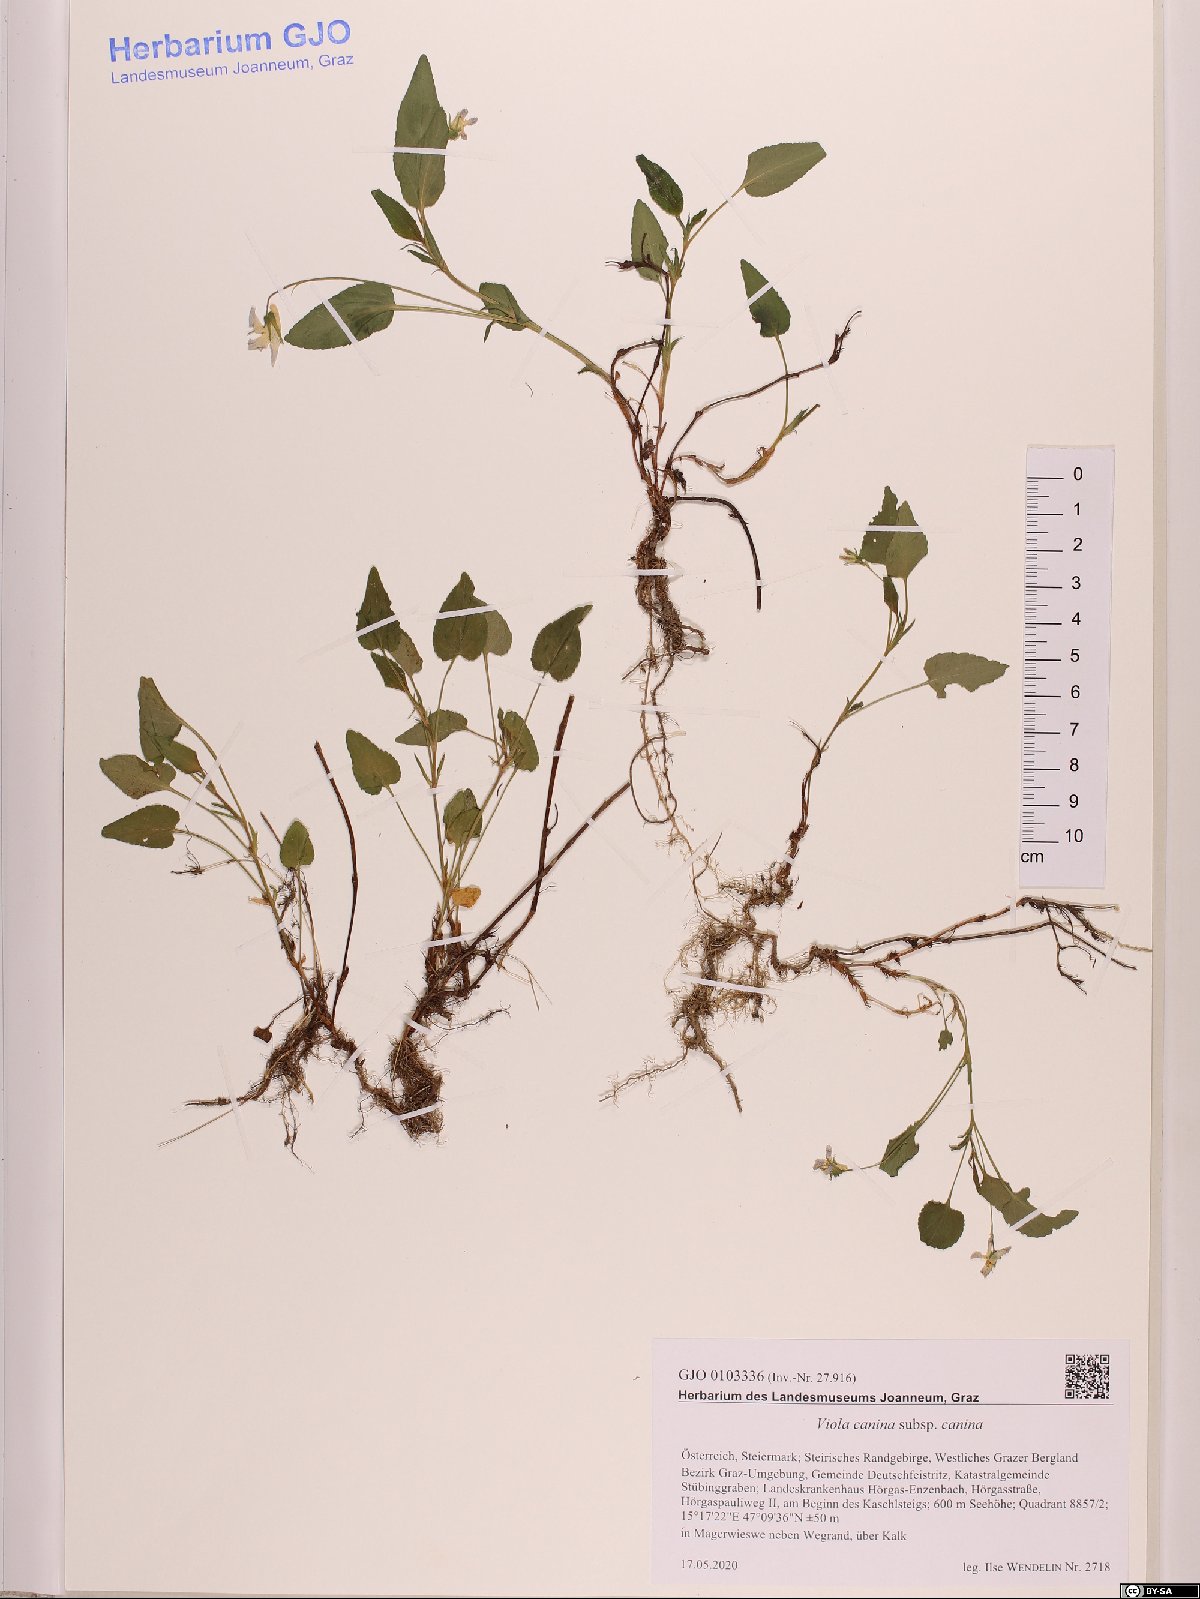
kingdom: Plantae
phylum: Tracheophyta
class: Magnoliopsida
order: Malpighiales
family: Violaceae
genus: Viola
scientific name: Viola canina
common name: Heath dog-violet
